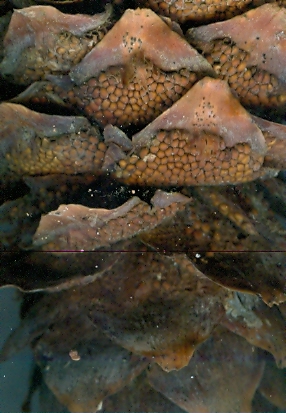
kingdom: Fungi
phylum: Basidiomycota
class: Pucciniomycetes
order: Pucciniales
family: Pucciniastraceae
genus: Thekopsora
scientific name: Thekopsora areolata
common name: grankogle-nålerust
